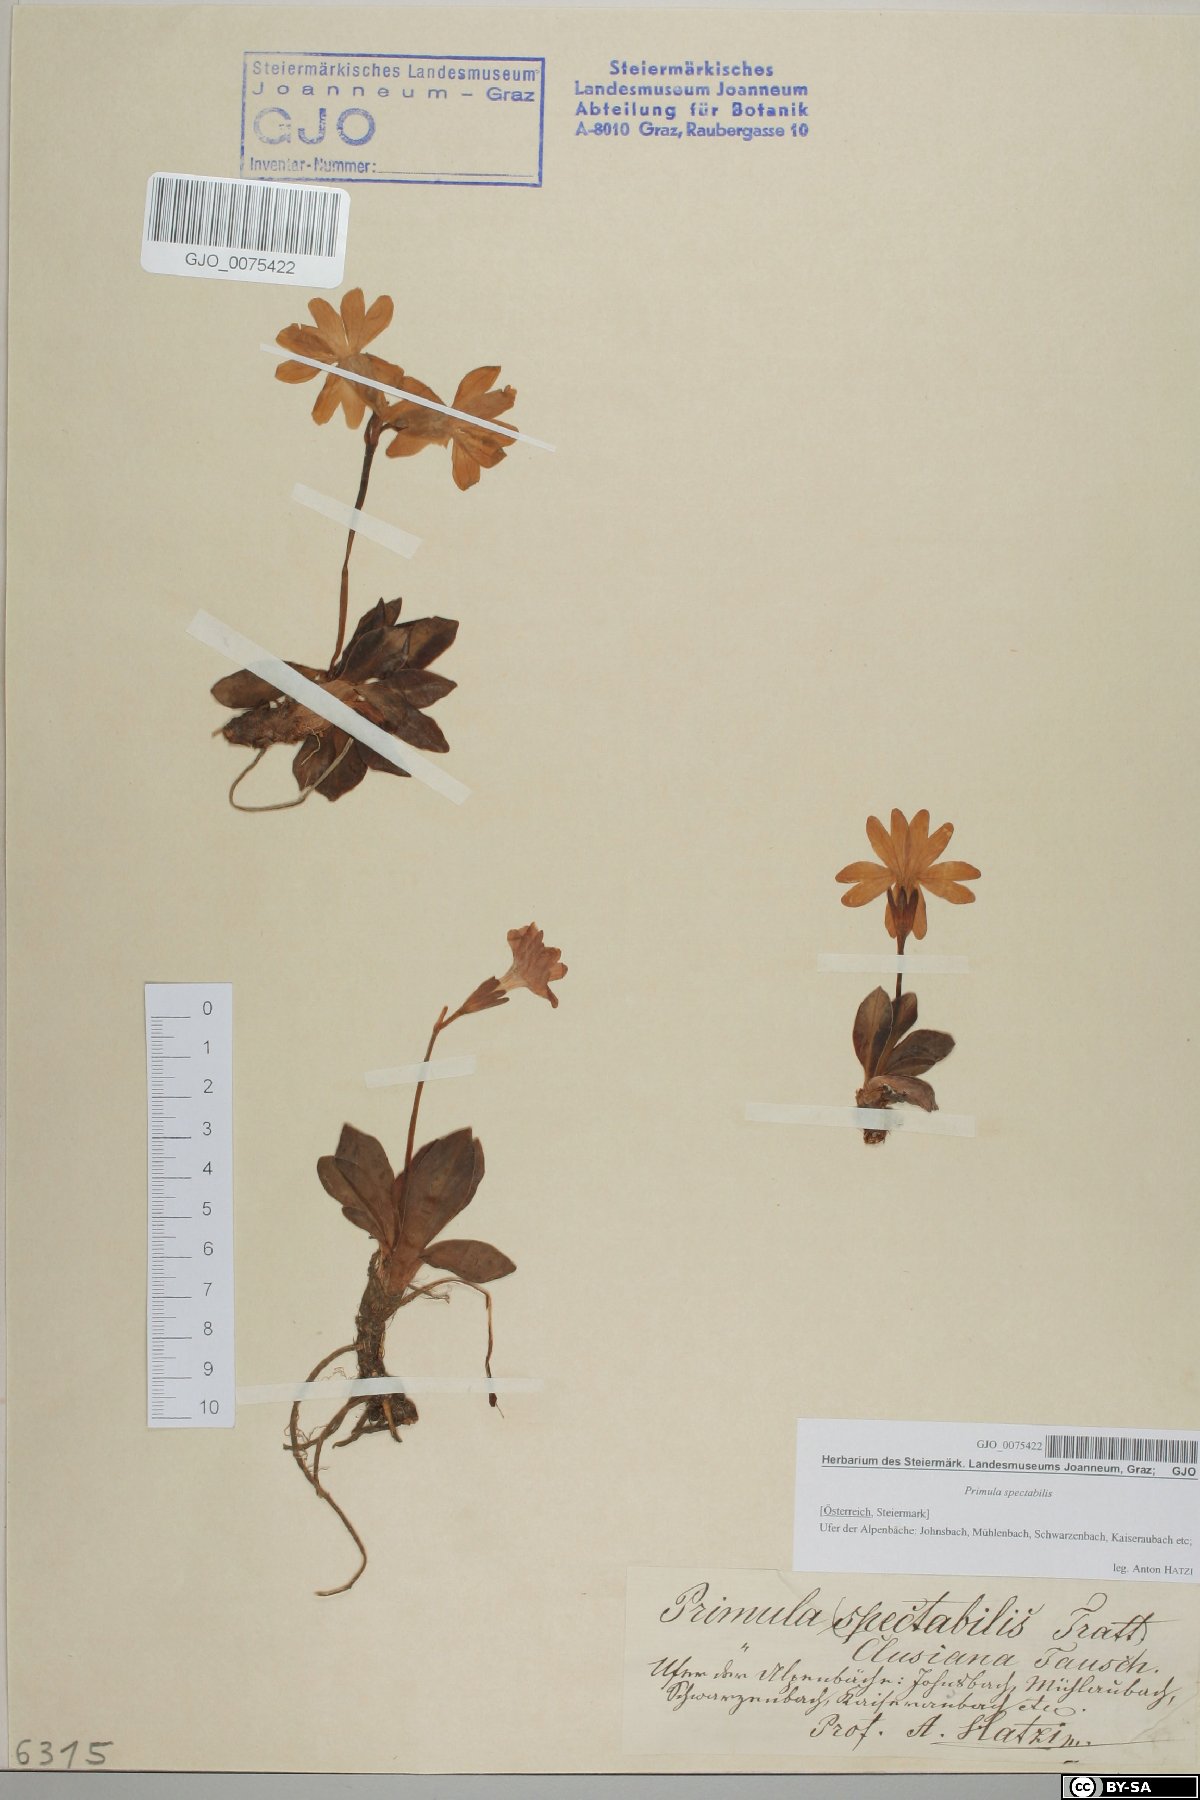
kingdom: Plantae
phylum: Tracheophyta
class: Magnoliopsida
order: Ericales
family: Primulaceae
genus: Primula
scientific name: Primula clusiana
